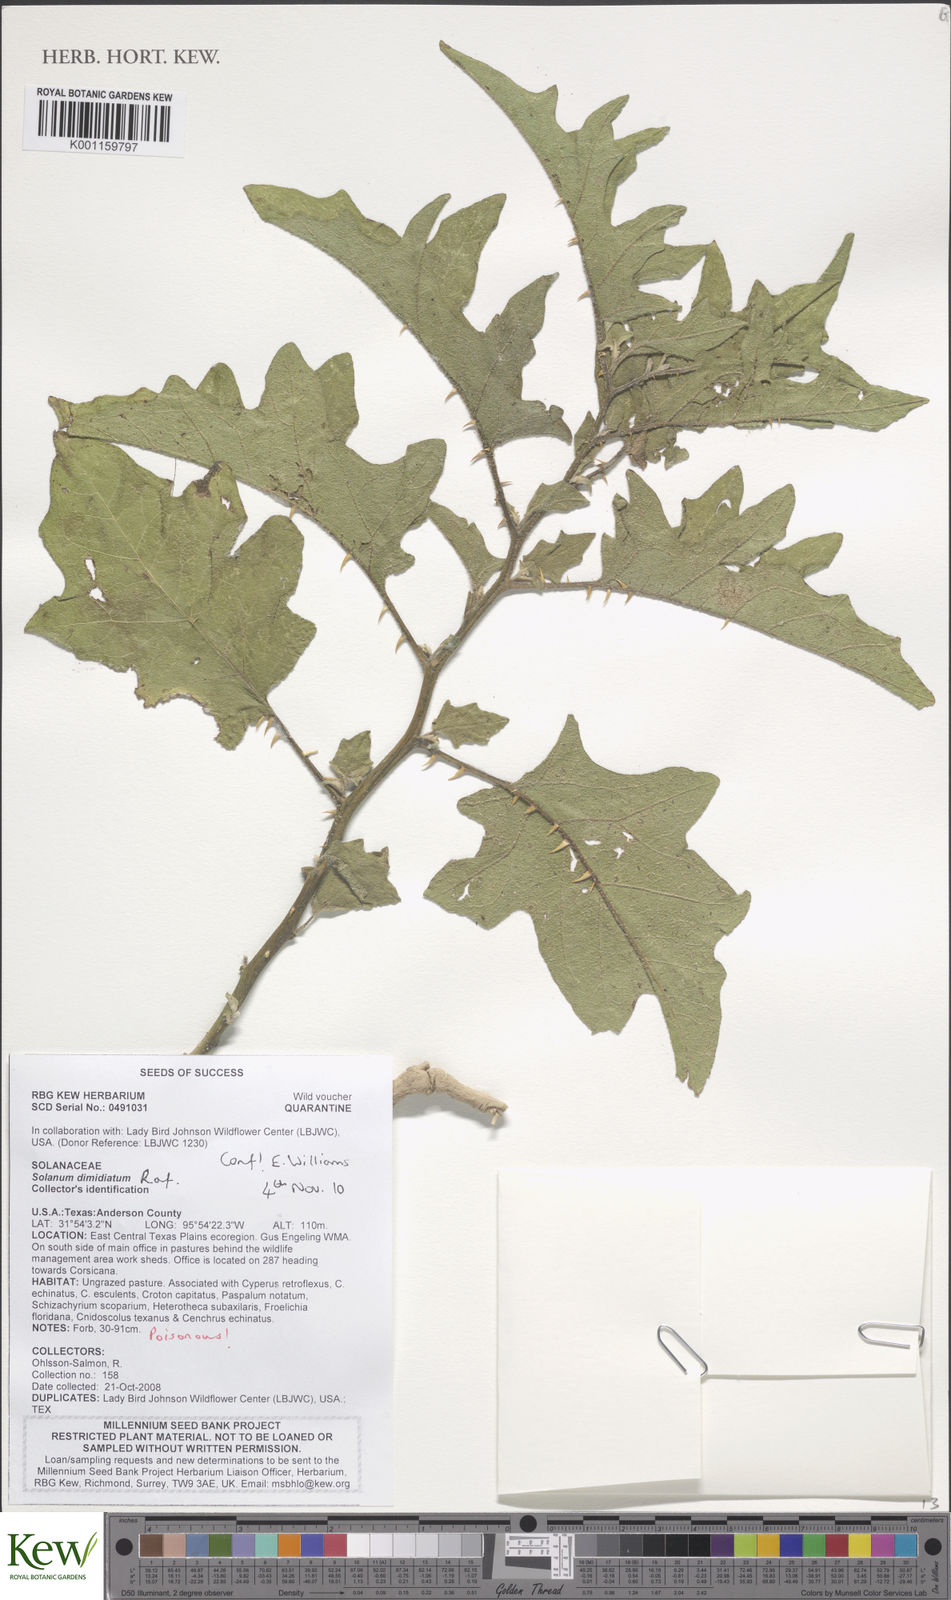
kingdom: Plantae
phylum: Tracheophyta
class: Magnoliopsida
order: Solanales
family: Solanaceae
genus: Solanum
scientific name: Solanum
